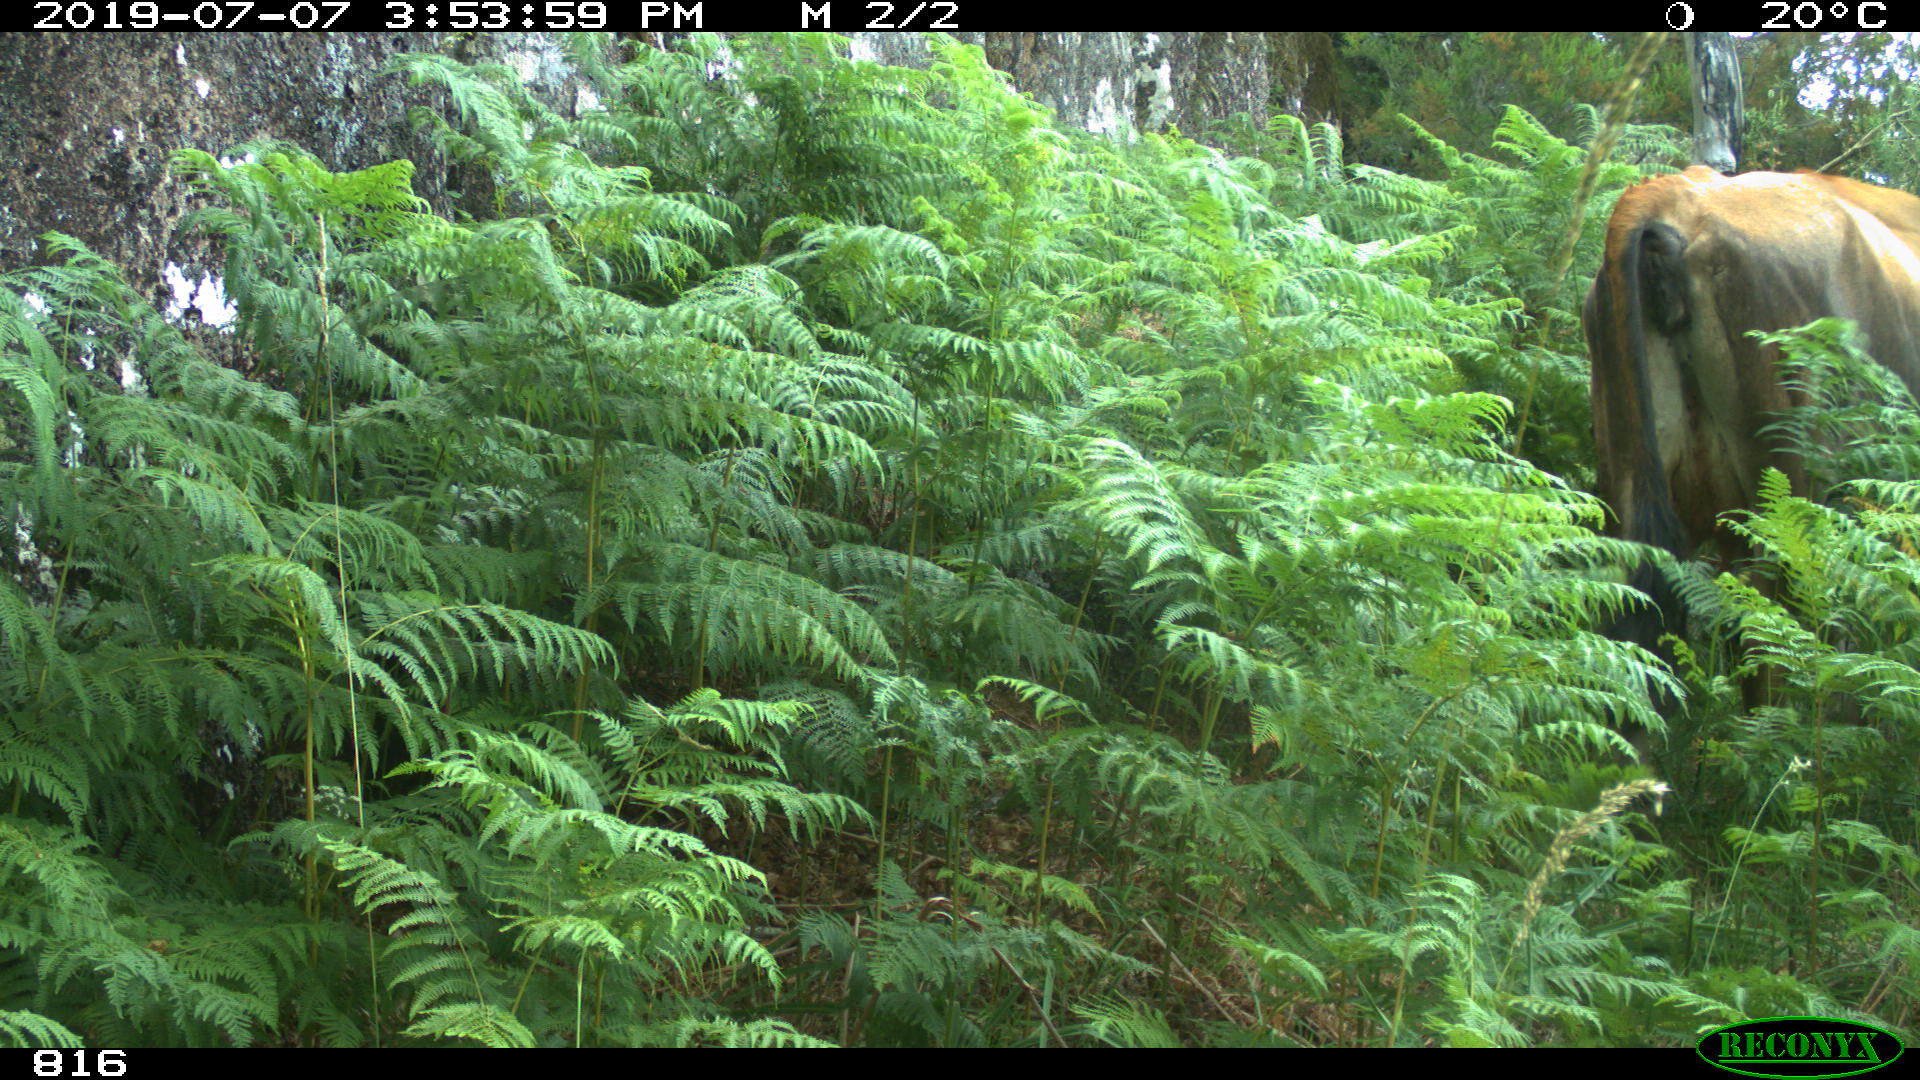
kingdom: Animalia
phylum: Chordata
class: Mammalia
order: Artiodactyla
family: Bovidae
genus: Bos
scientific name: Bos taurus
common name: Domesticated cattle
